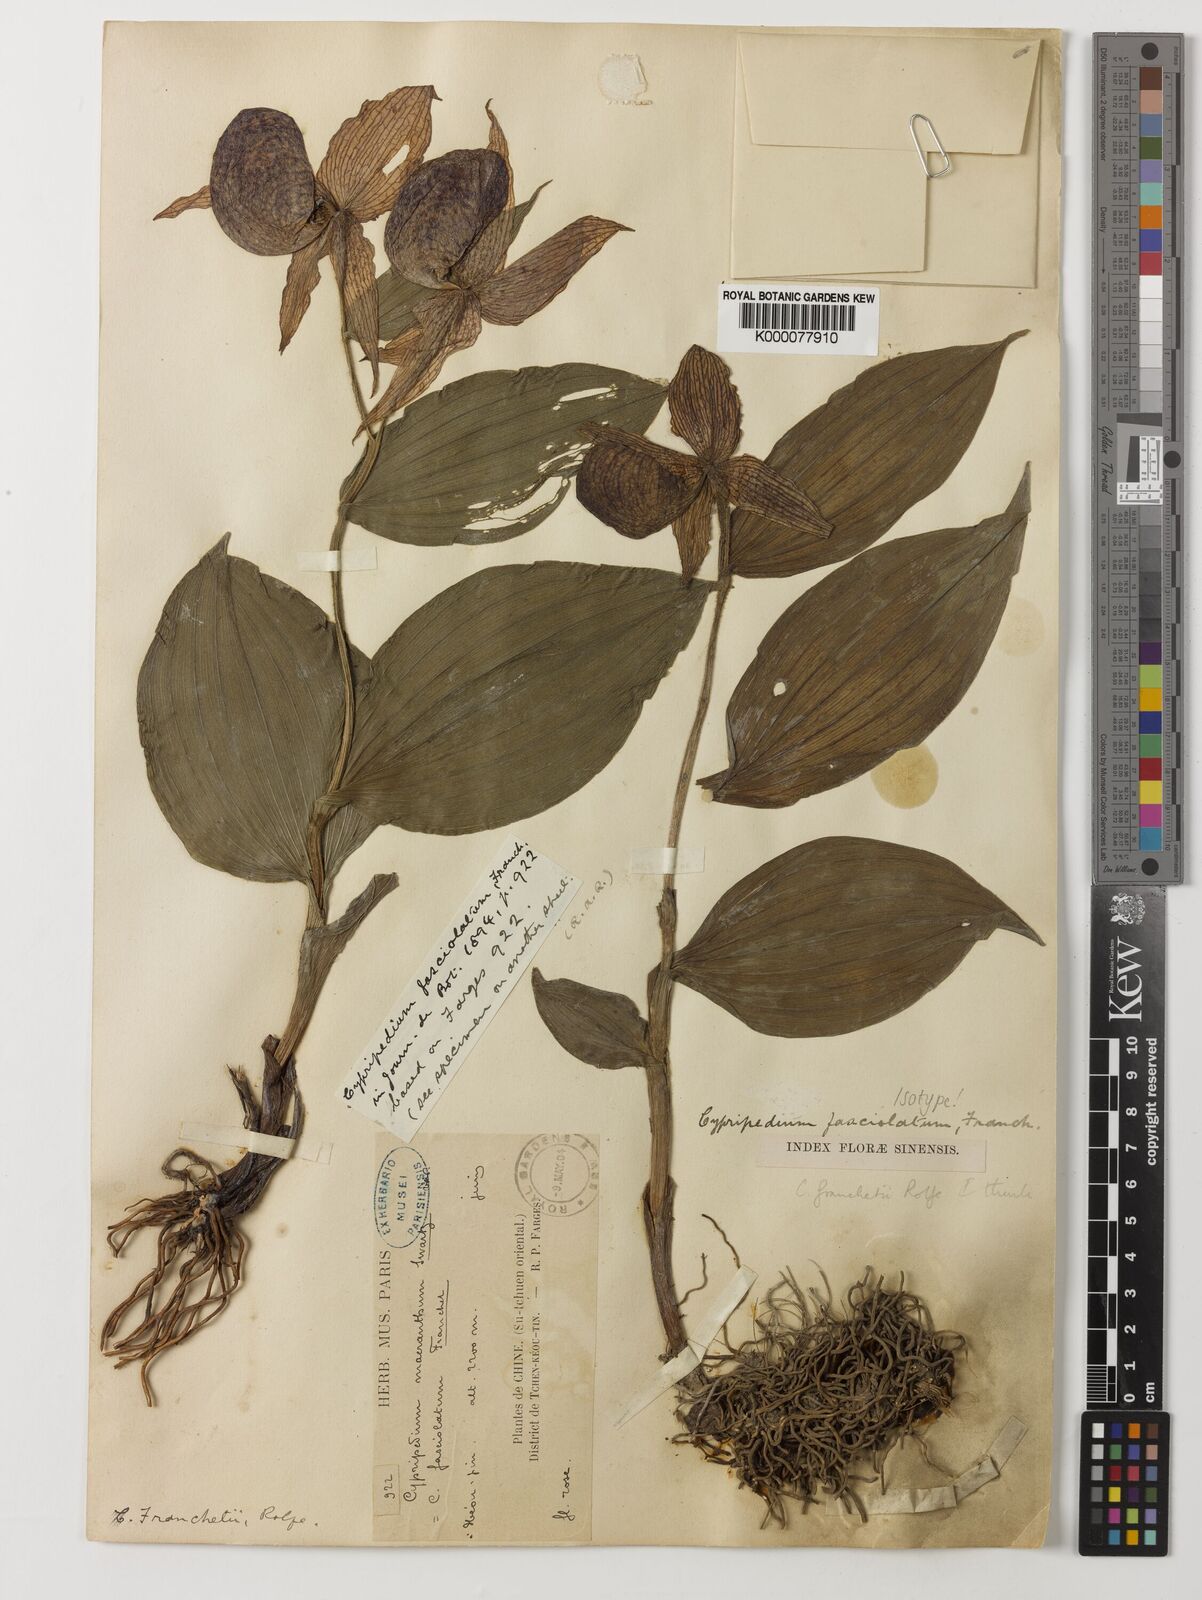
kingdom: Plantae
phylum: Tracheophyta
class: Liliopsida
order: Asparagales
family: Orchidaceae
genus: Cypripedium
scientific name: Cypripedium fasciolatum
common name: Striped lady slipper
